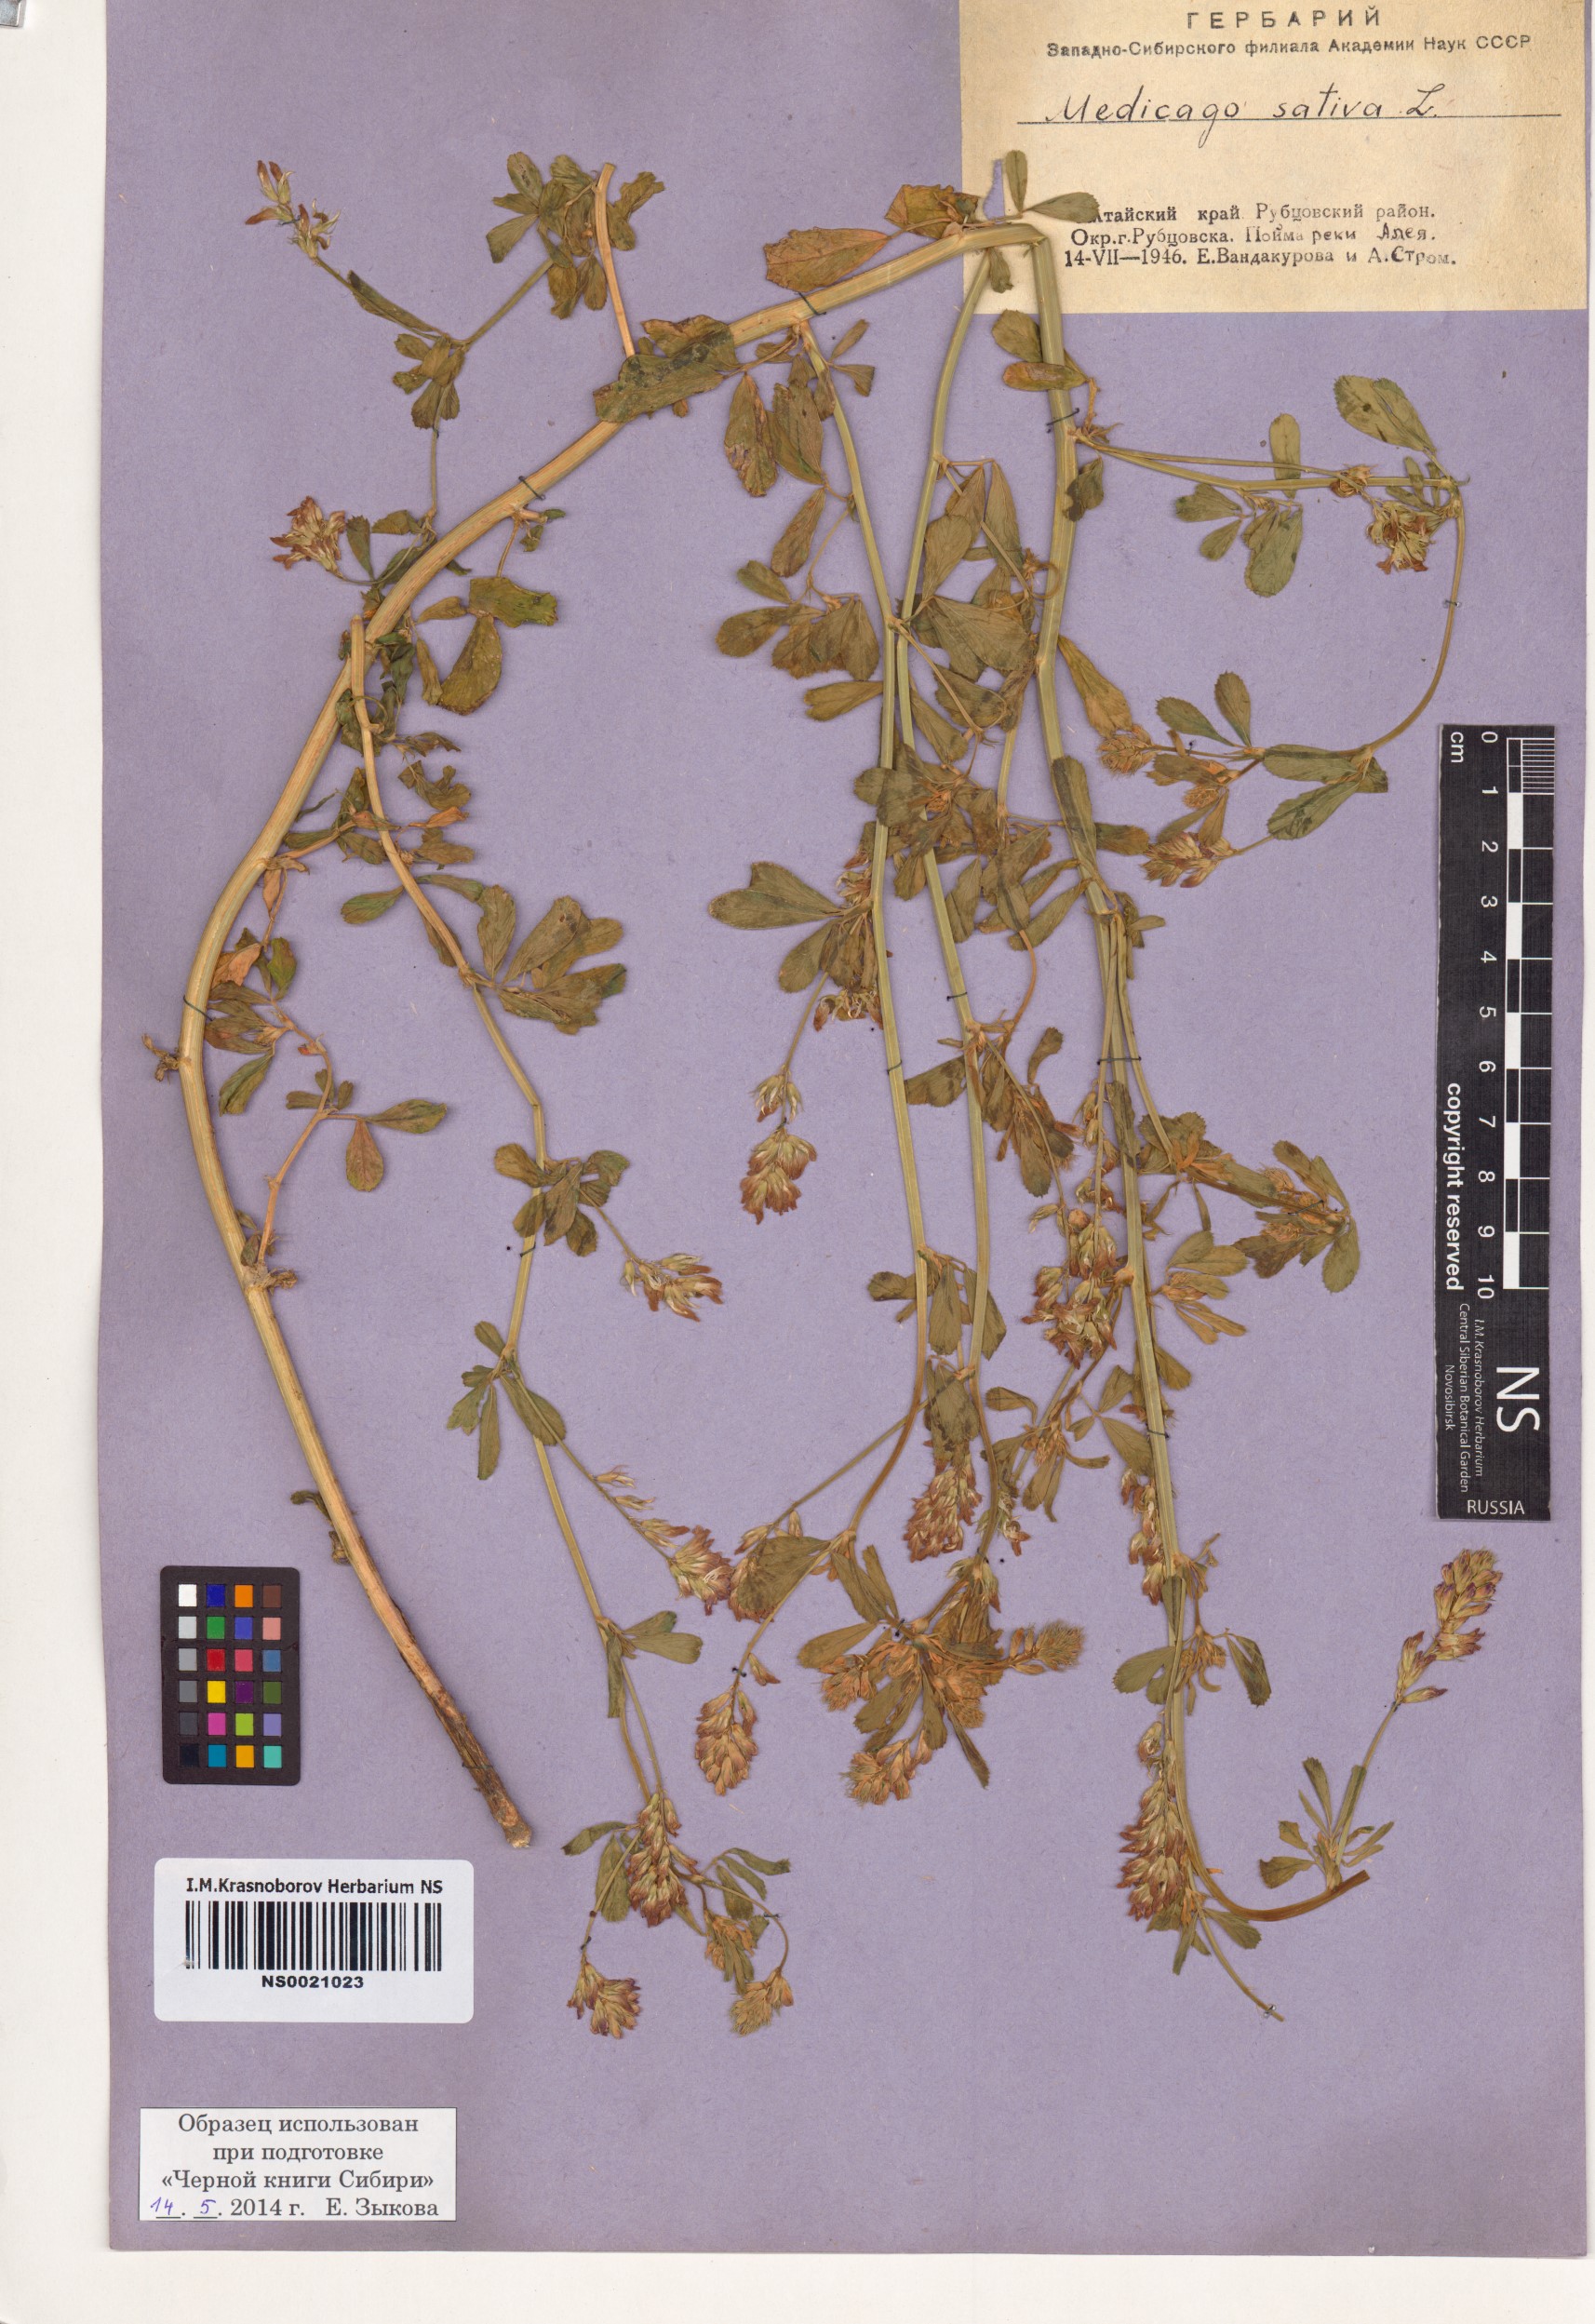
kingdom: Plantae
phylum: Tracheophyta
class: Magnoliopsida
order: Fabales
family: Fabaceae
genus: Medicago
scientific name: Medicago sativa
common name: Alfalfa
